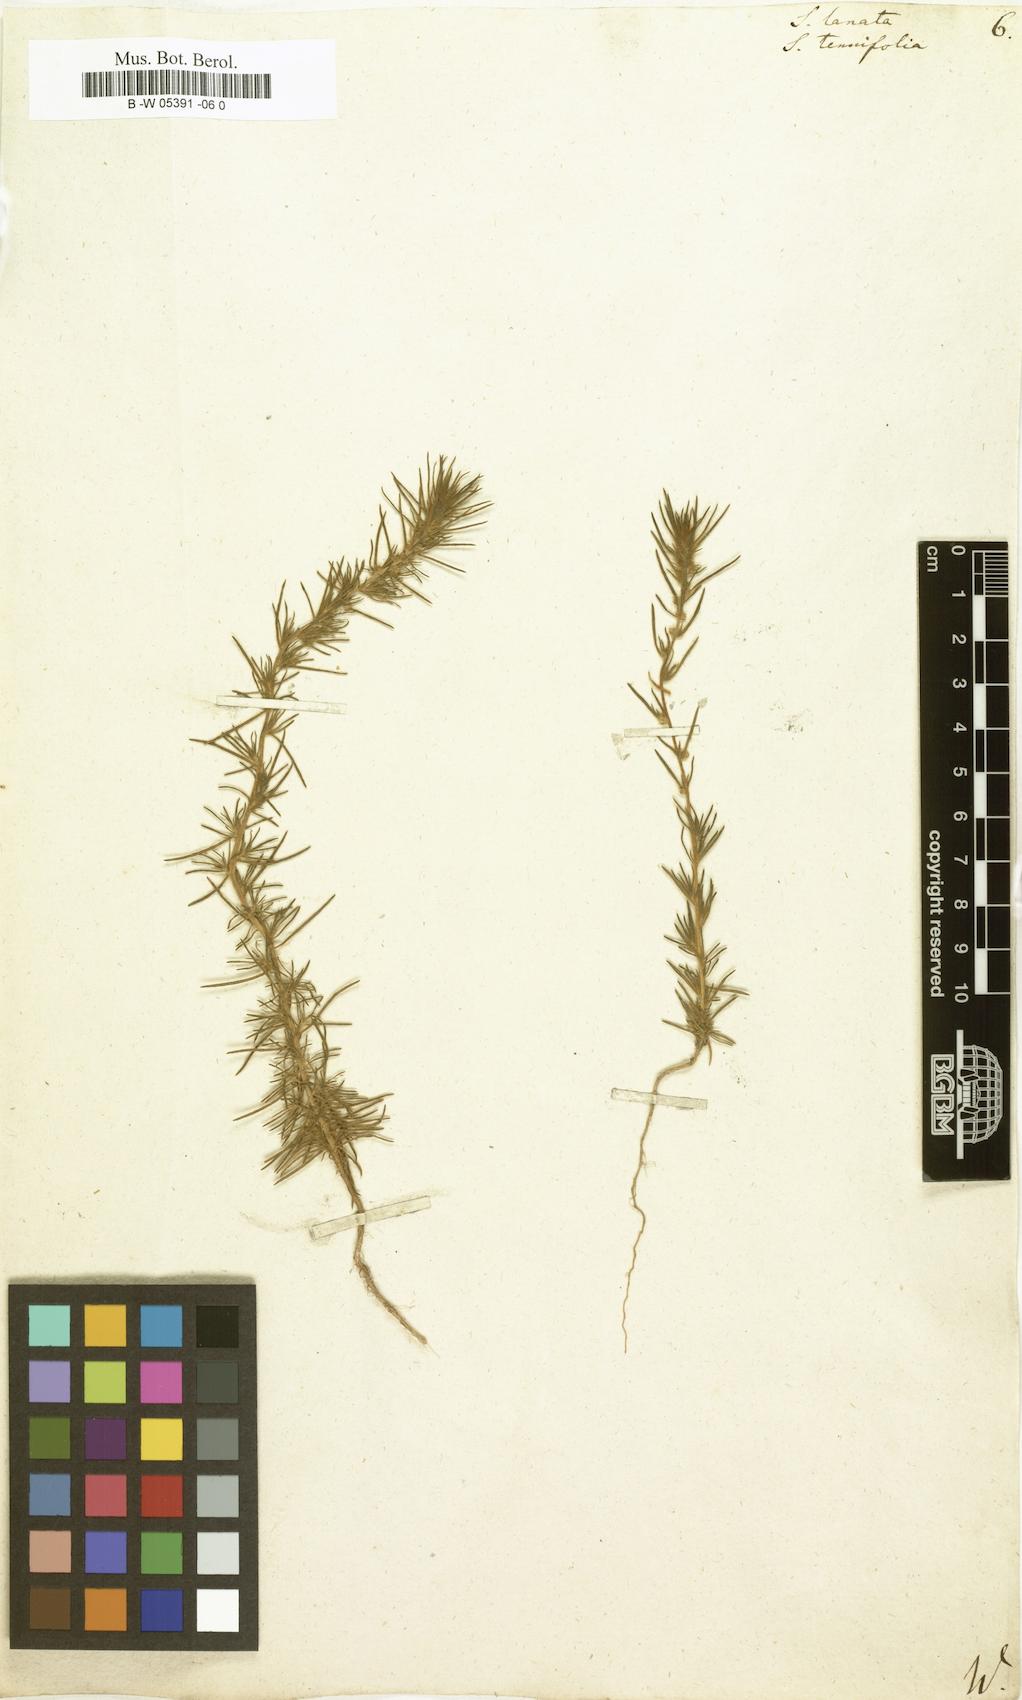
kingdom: Plantae
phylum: Tracheophyta
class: Magnoliopsida
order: Caryophyllales
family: Amaranthaceae
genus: Climacoptera
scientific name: Climacoptera lanata
